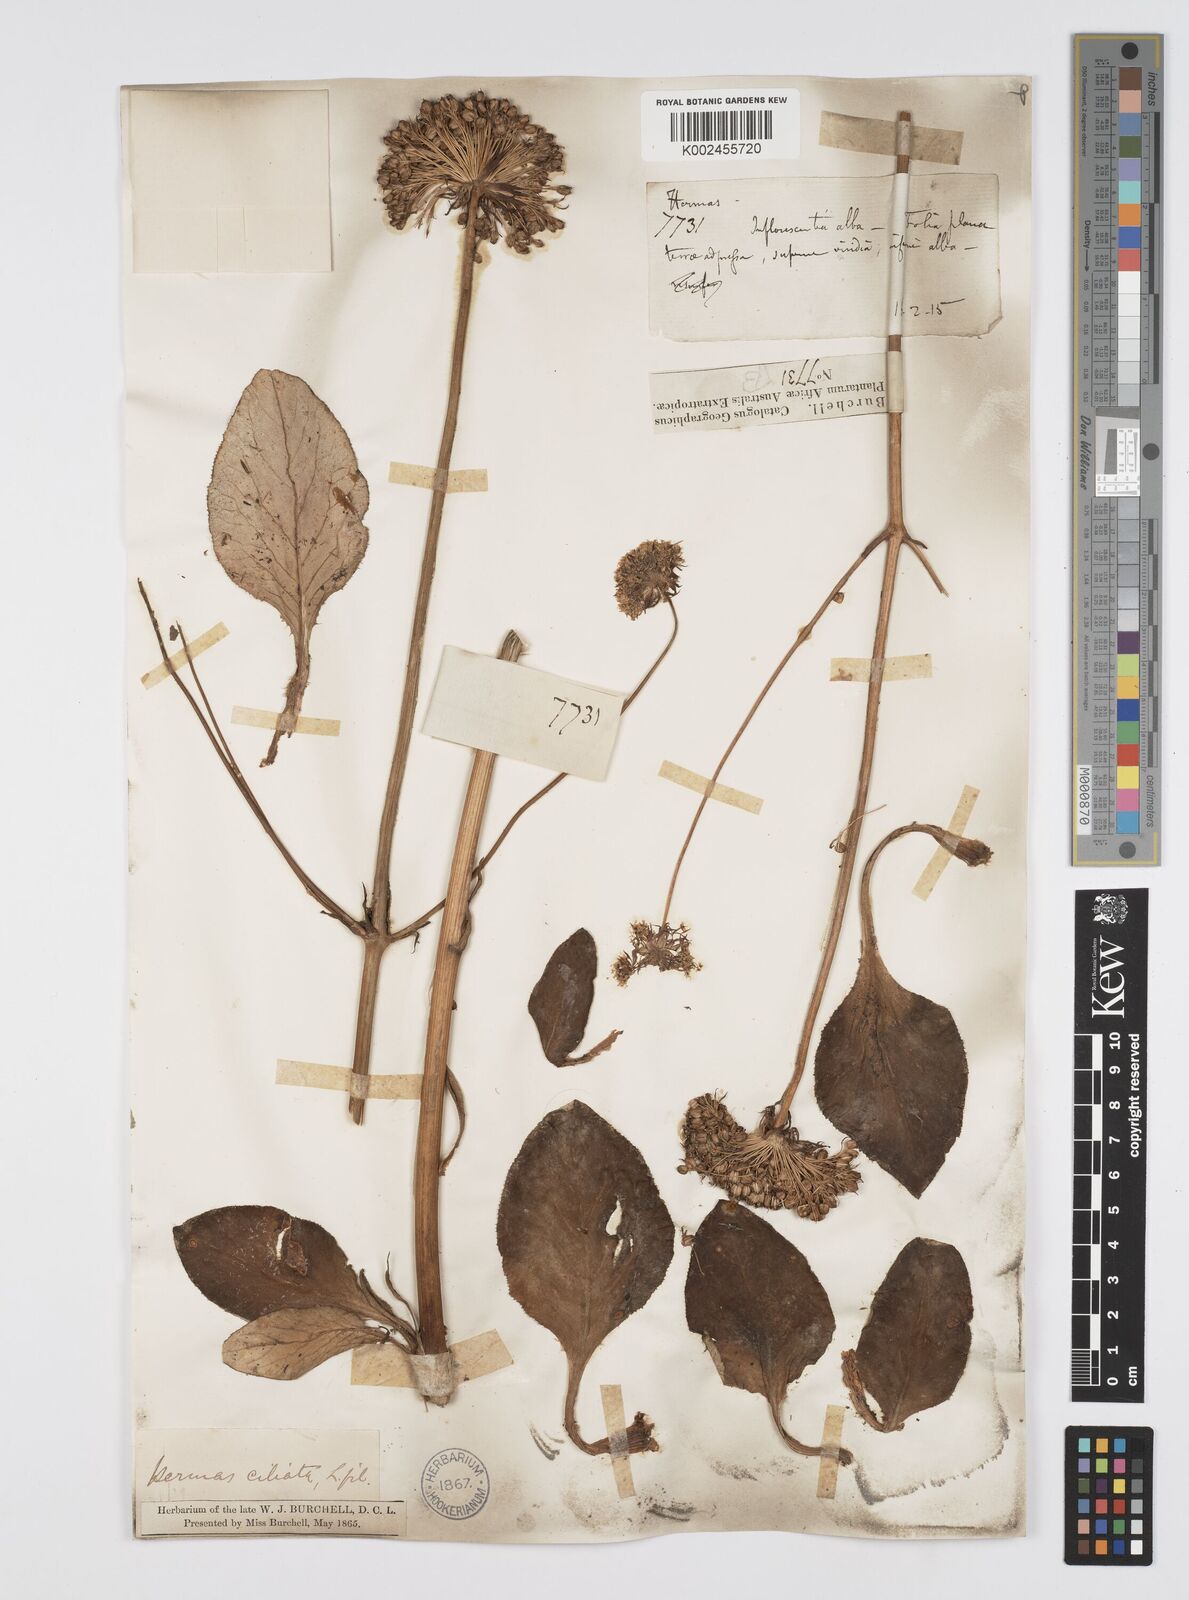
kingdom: Plantae
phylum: Tracheophyta
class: Magnoliopsida
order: Apiales
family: Apiaceae
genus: Hermas
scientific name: Hermas
